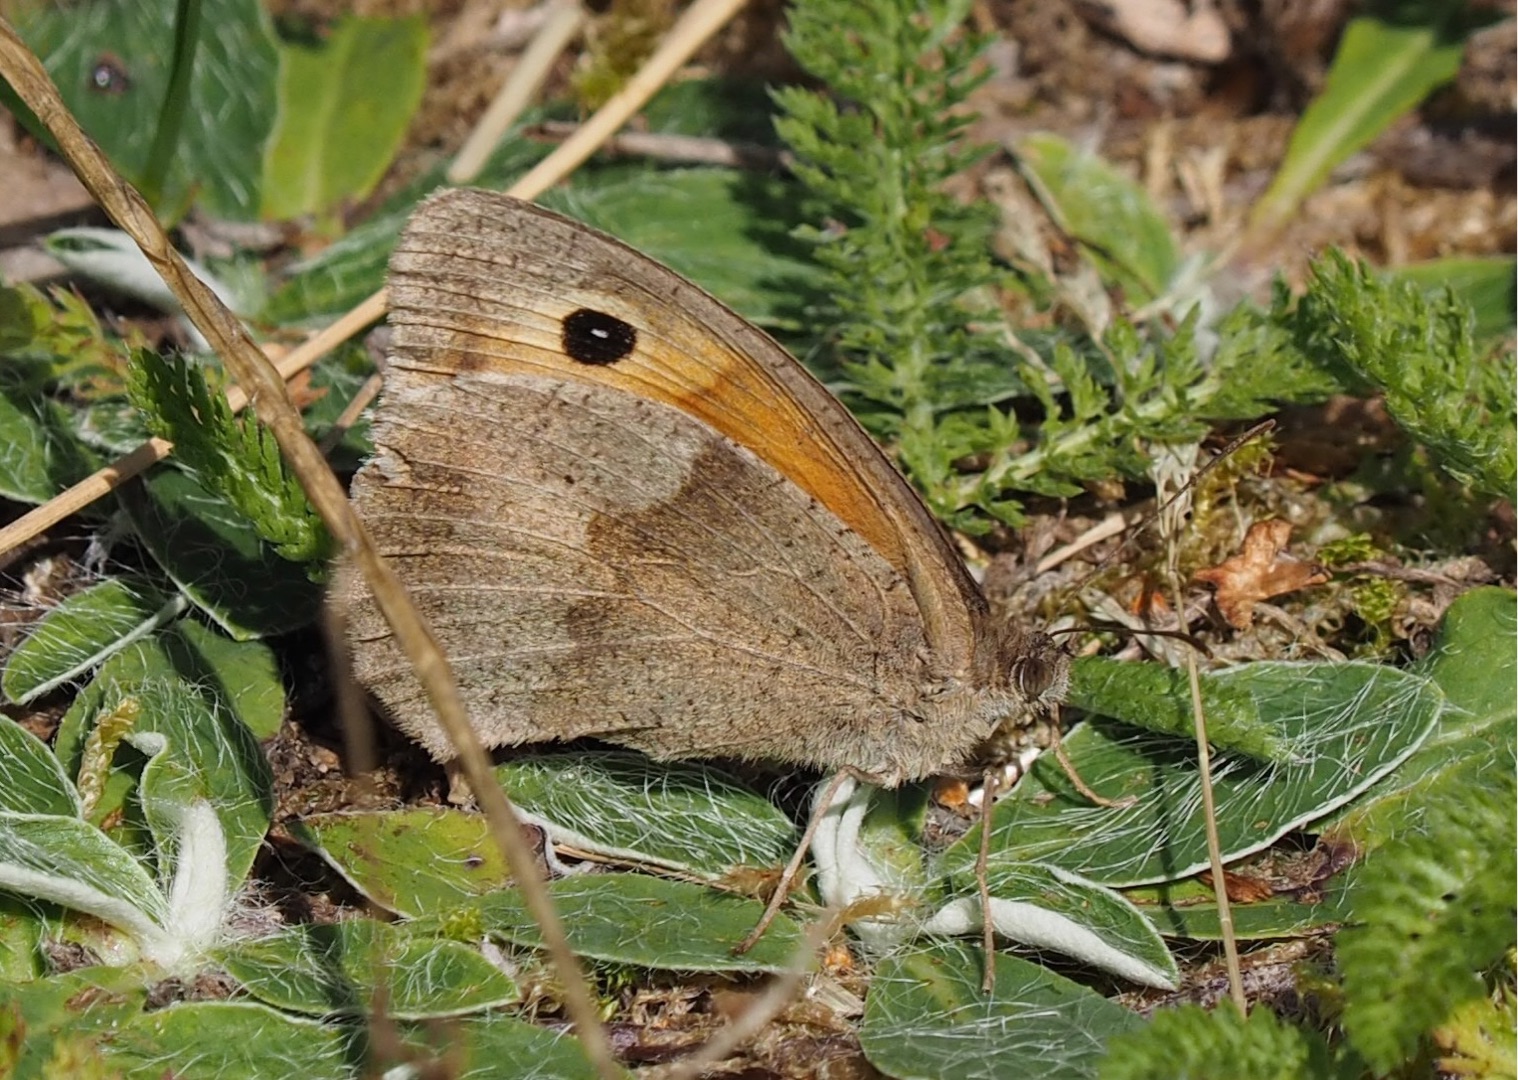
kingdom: Animalia
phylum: Arthropoda
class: Insecta
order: Lepidoptera
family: Nymphalidae
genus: Maniola
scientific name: Maniola jurtina
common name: Græsrandøje
